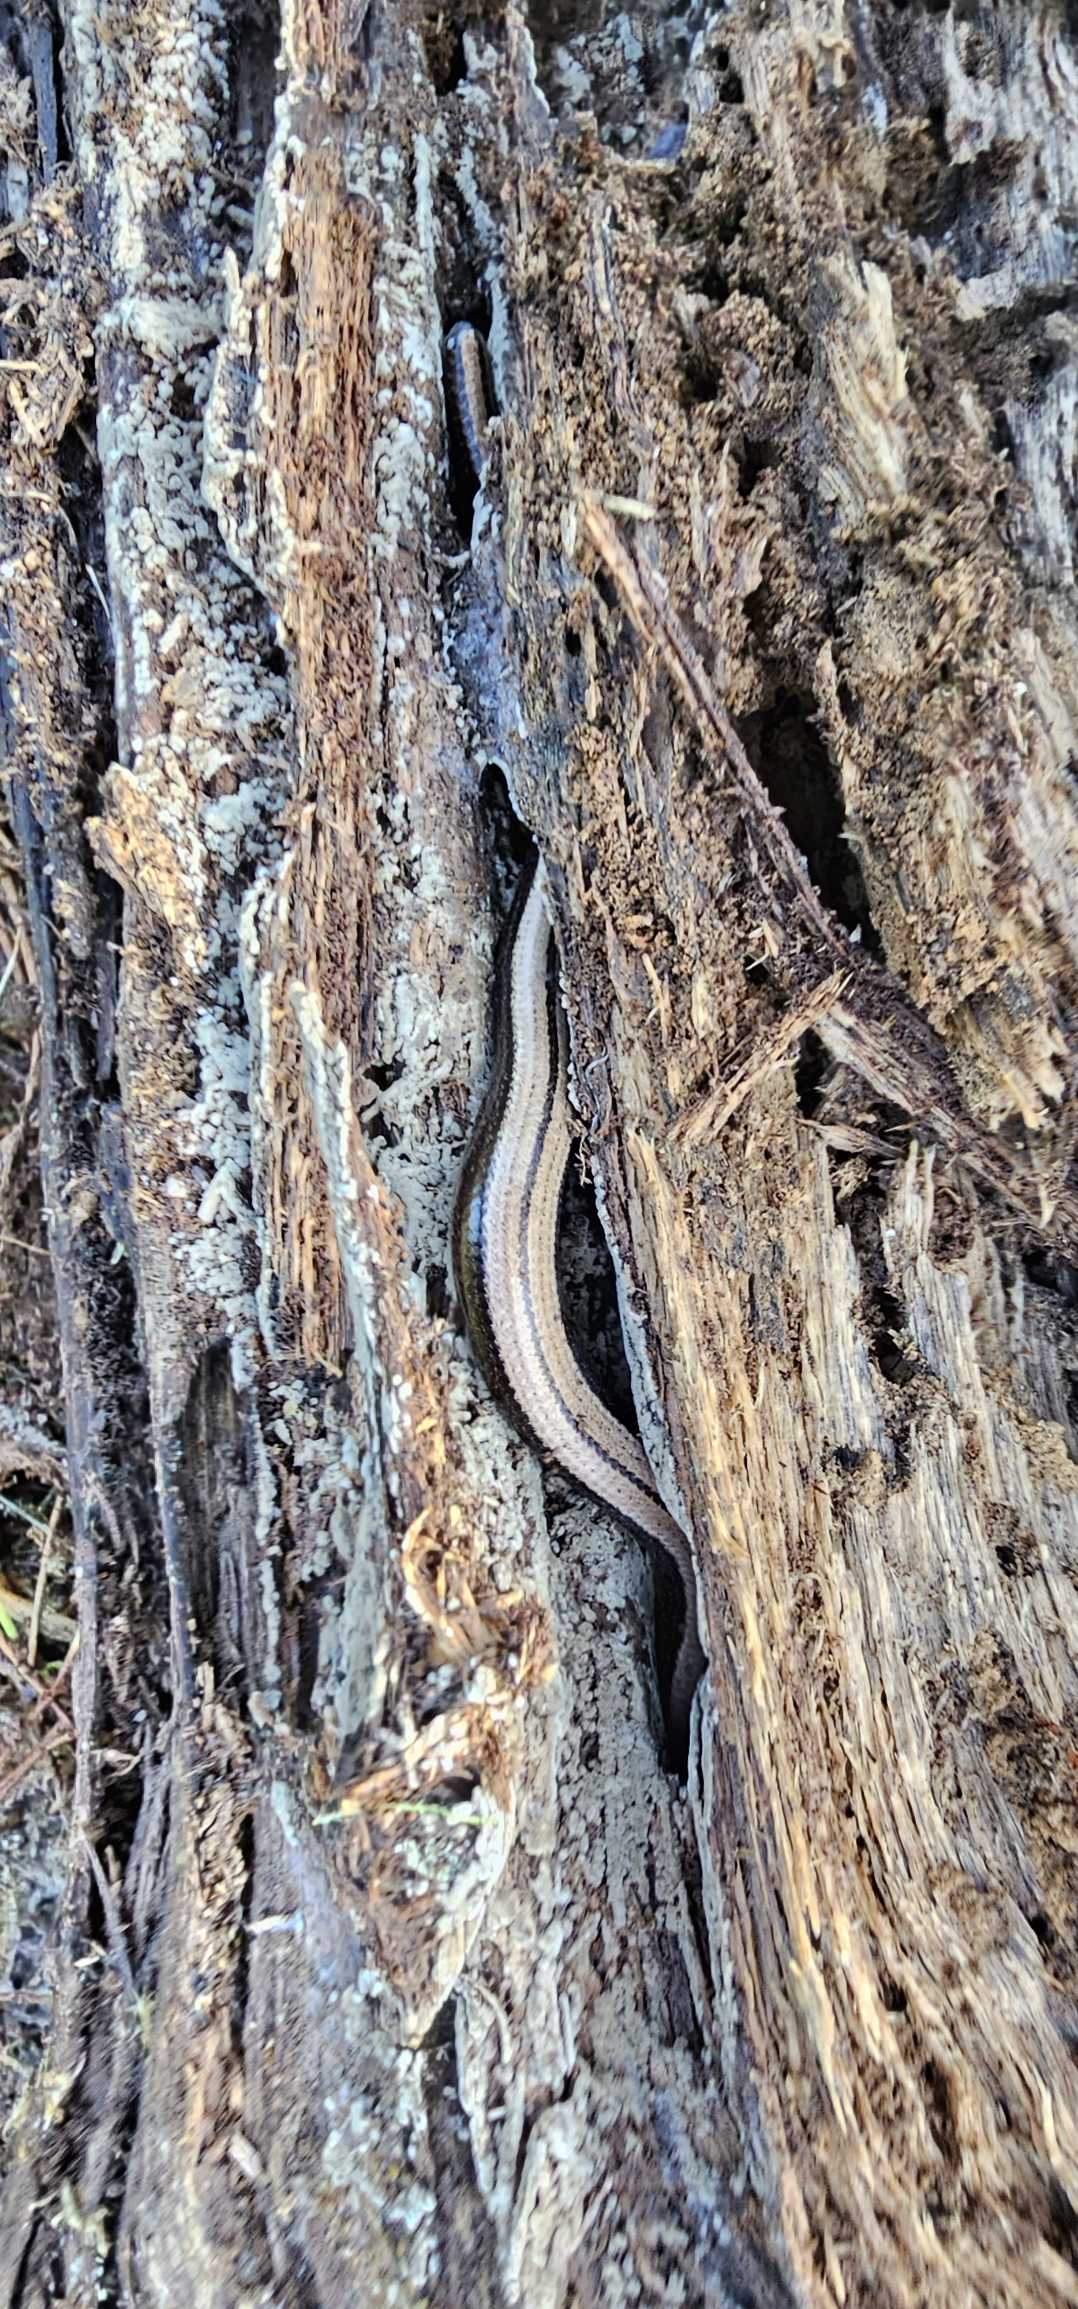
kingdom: Animalia
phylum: Chordata
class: Squamata
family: Anguidae
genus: Anguis
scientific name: Anguis fragilis
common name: Stålorm
